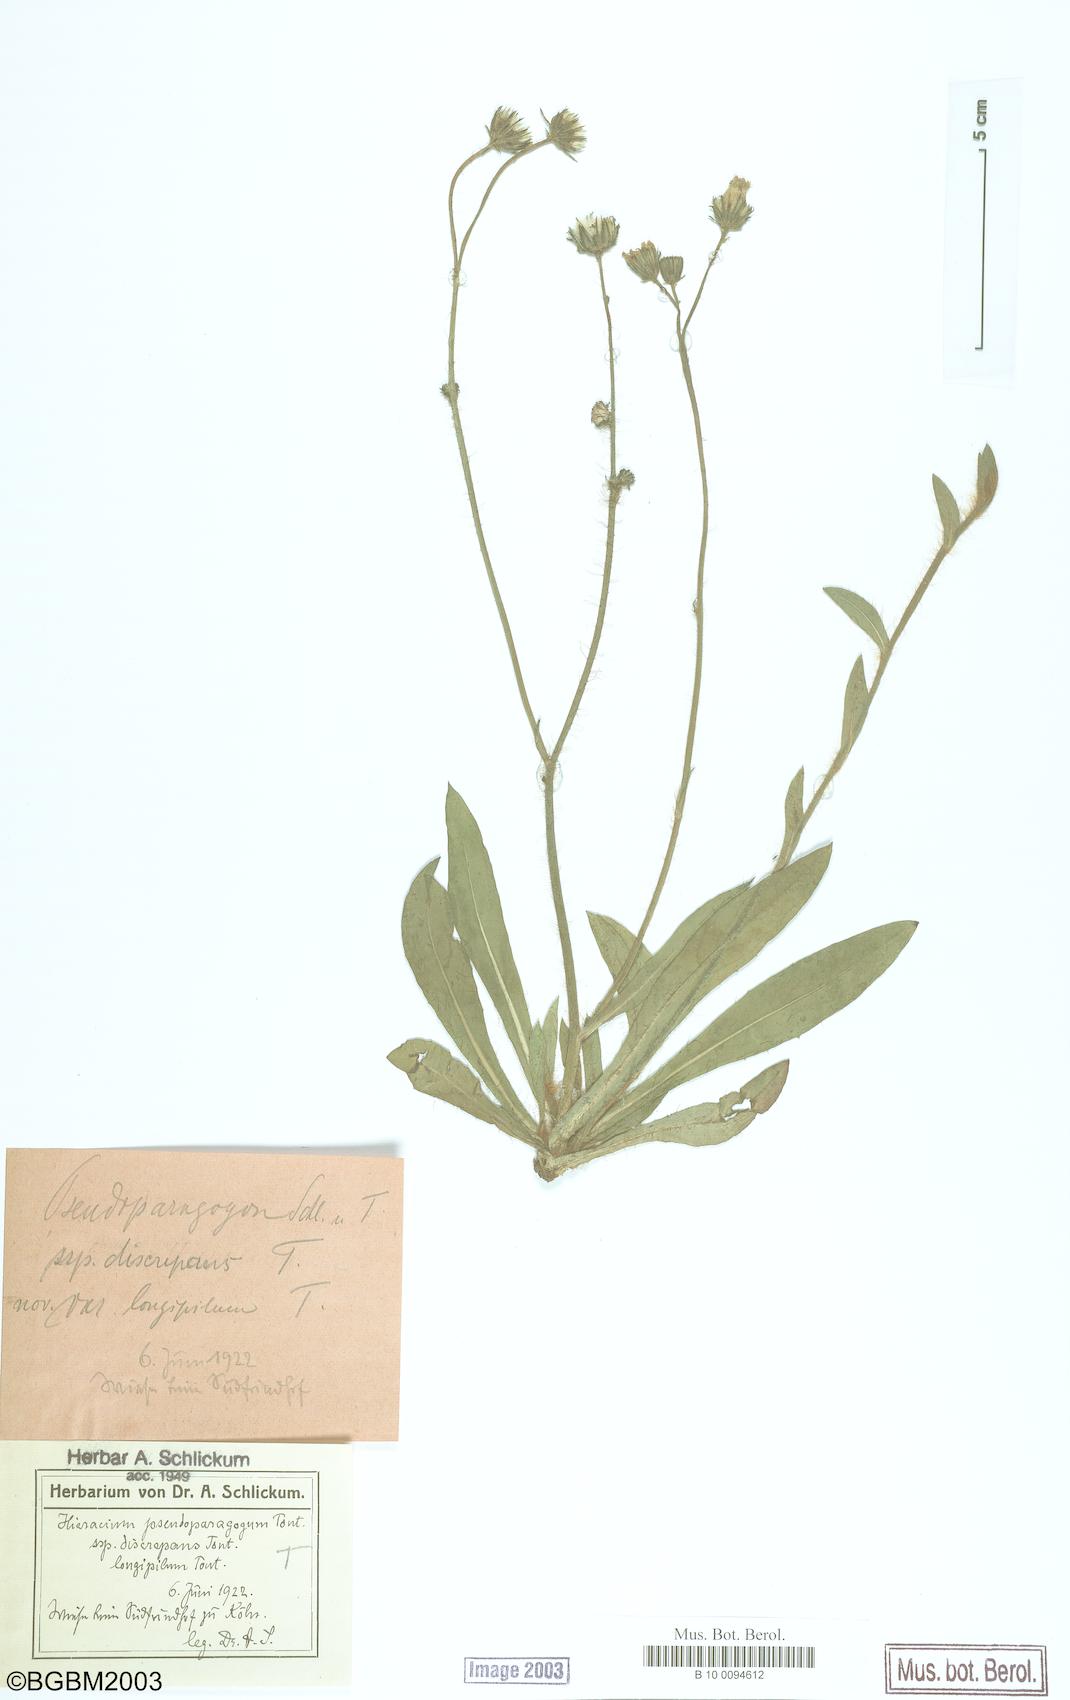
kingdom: Plantae
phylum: Tracheophyta
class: Magnoliopsida
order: Asterales
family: Asteraceae
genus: Pilosella
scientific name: Pilosella pseudoparagoga
